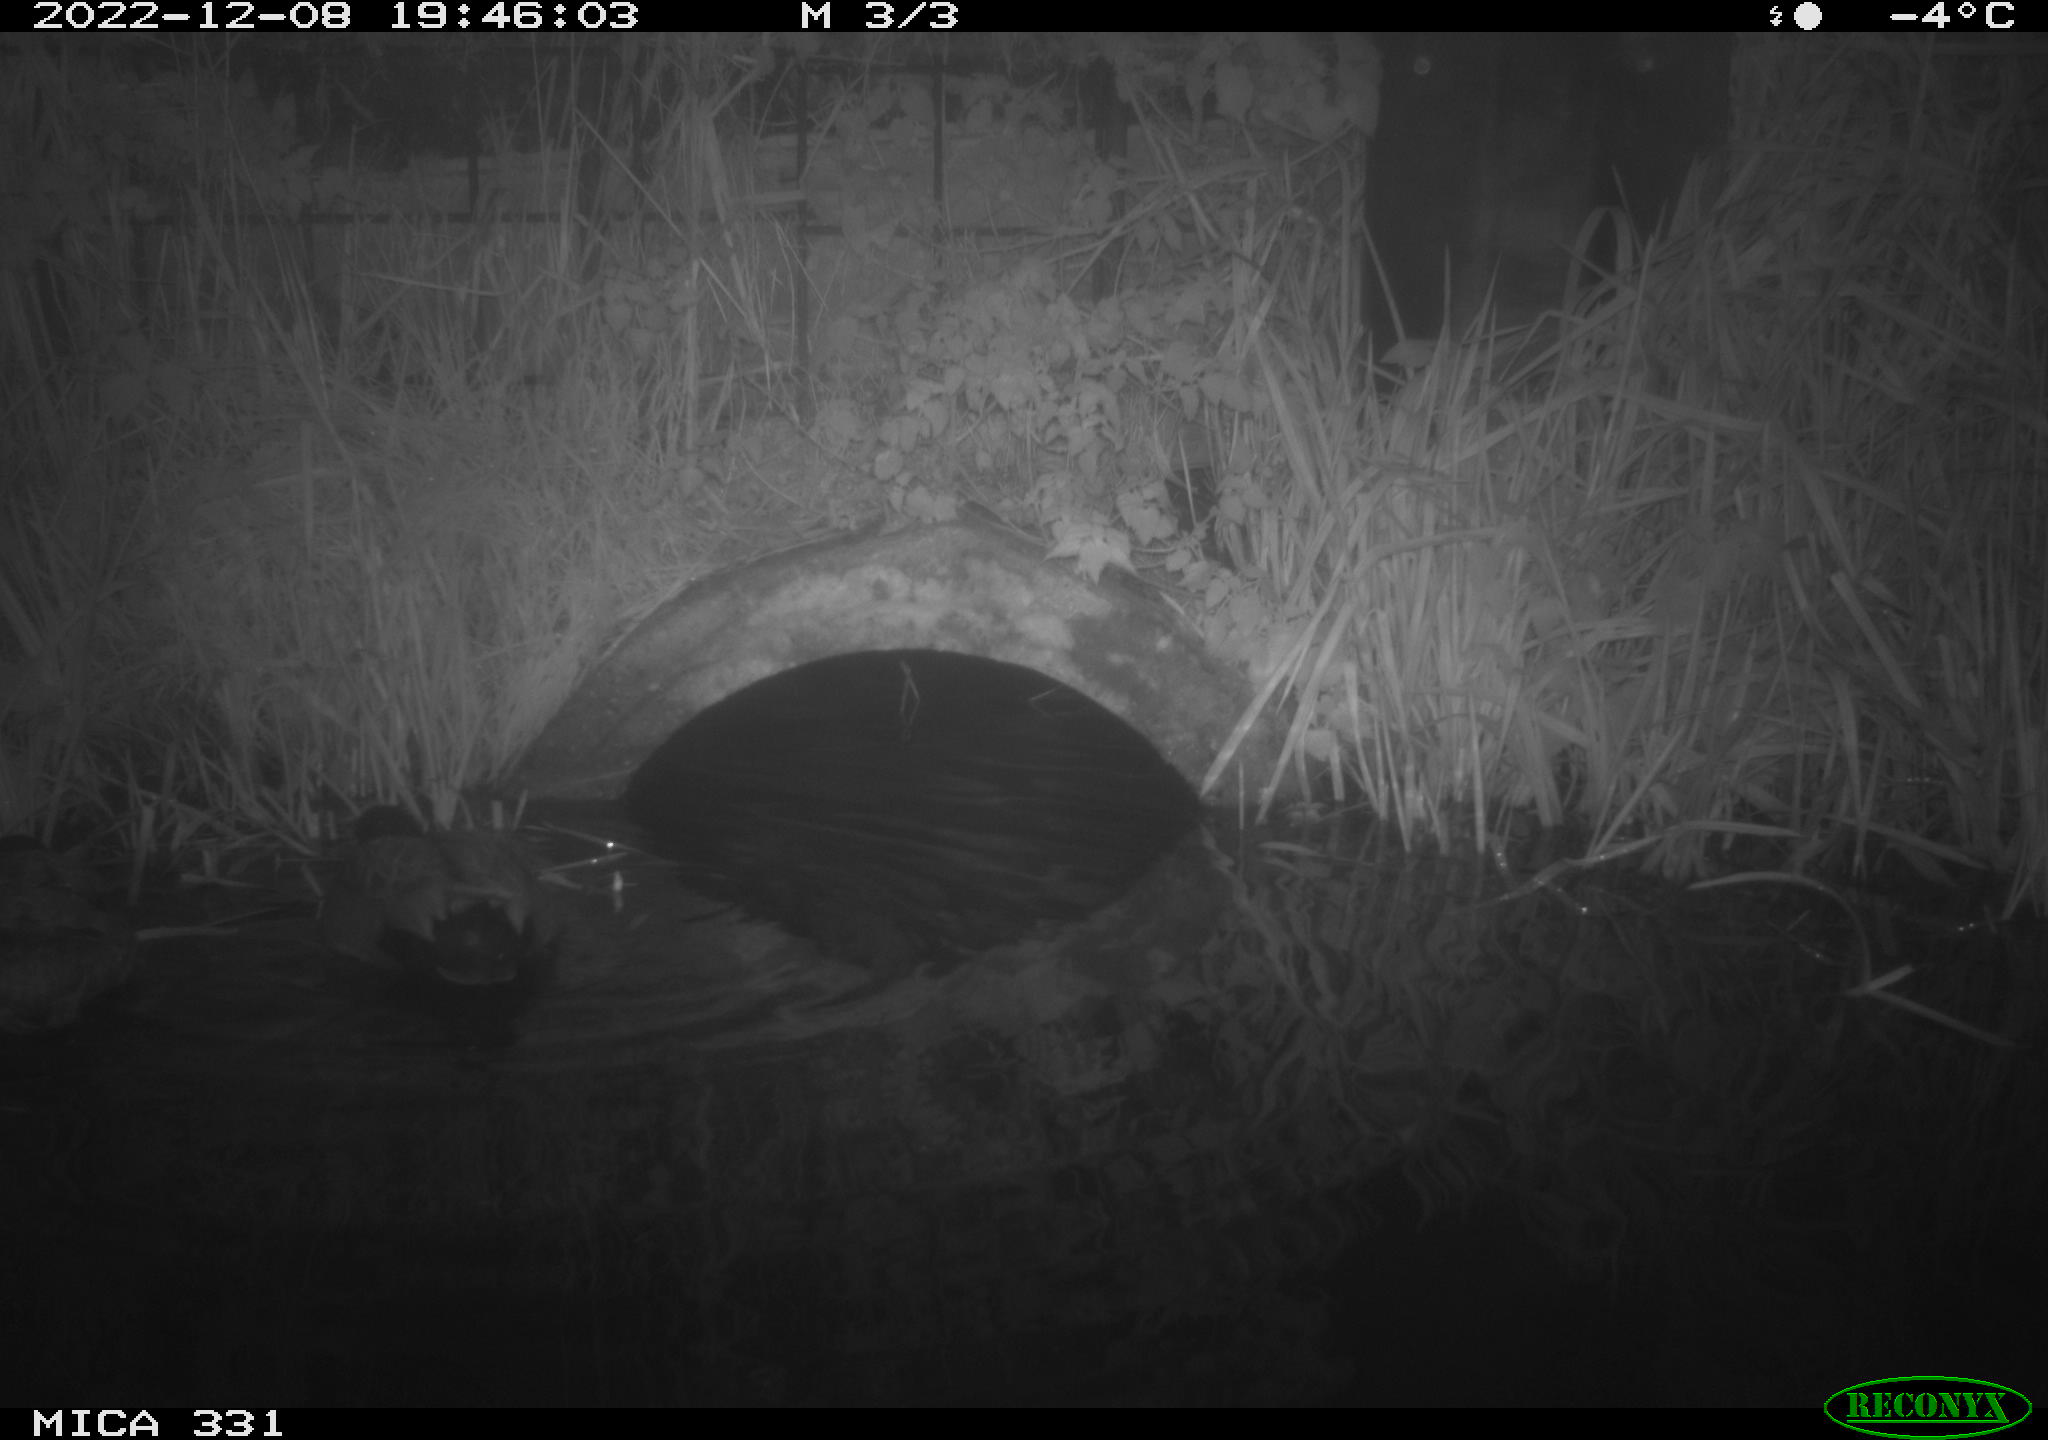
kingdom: Animalia
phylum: Chordata
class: Aves
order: Anseriformes
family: Anatidae
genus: Anas
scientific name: Anas platyrhynchos
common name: Mallard
